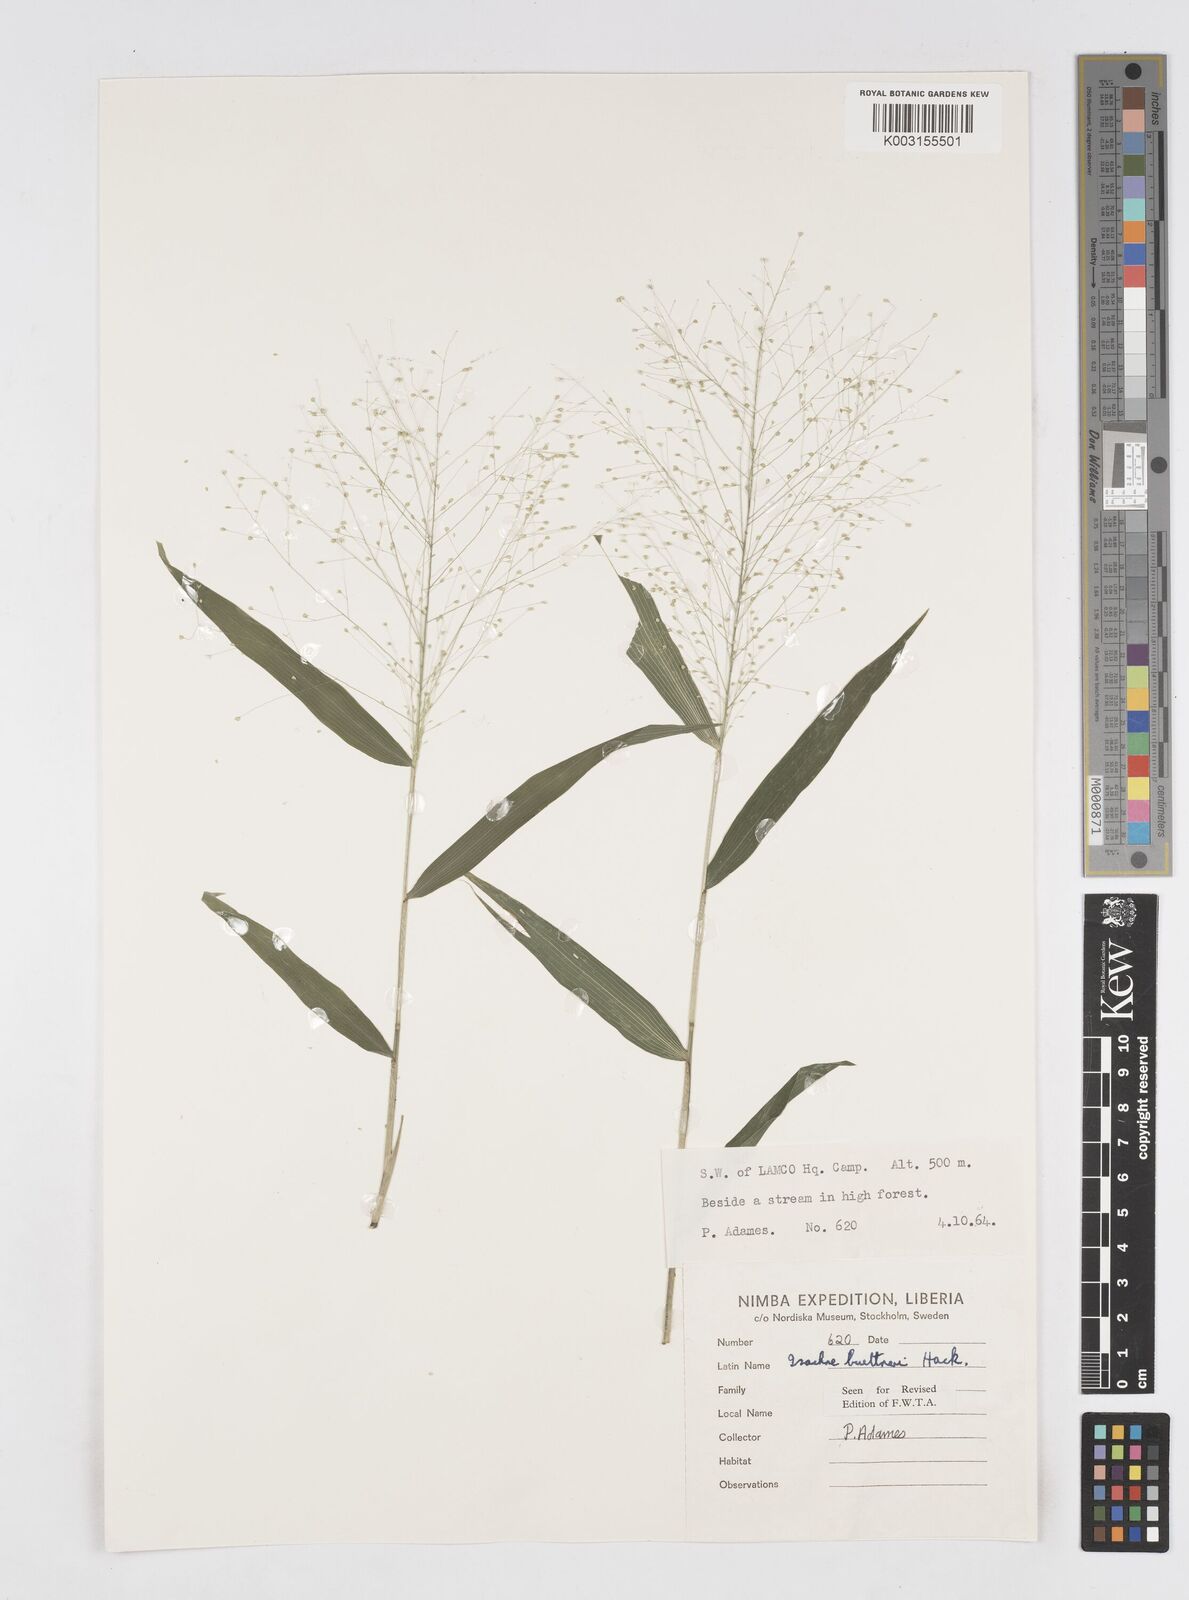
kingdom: Plantae
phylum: Tracheophyta
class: Liliopsida
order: Poales
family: Poaceae
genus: Isachne
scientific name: Isachne albens
